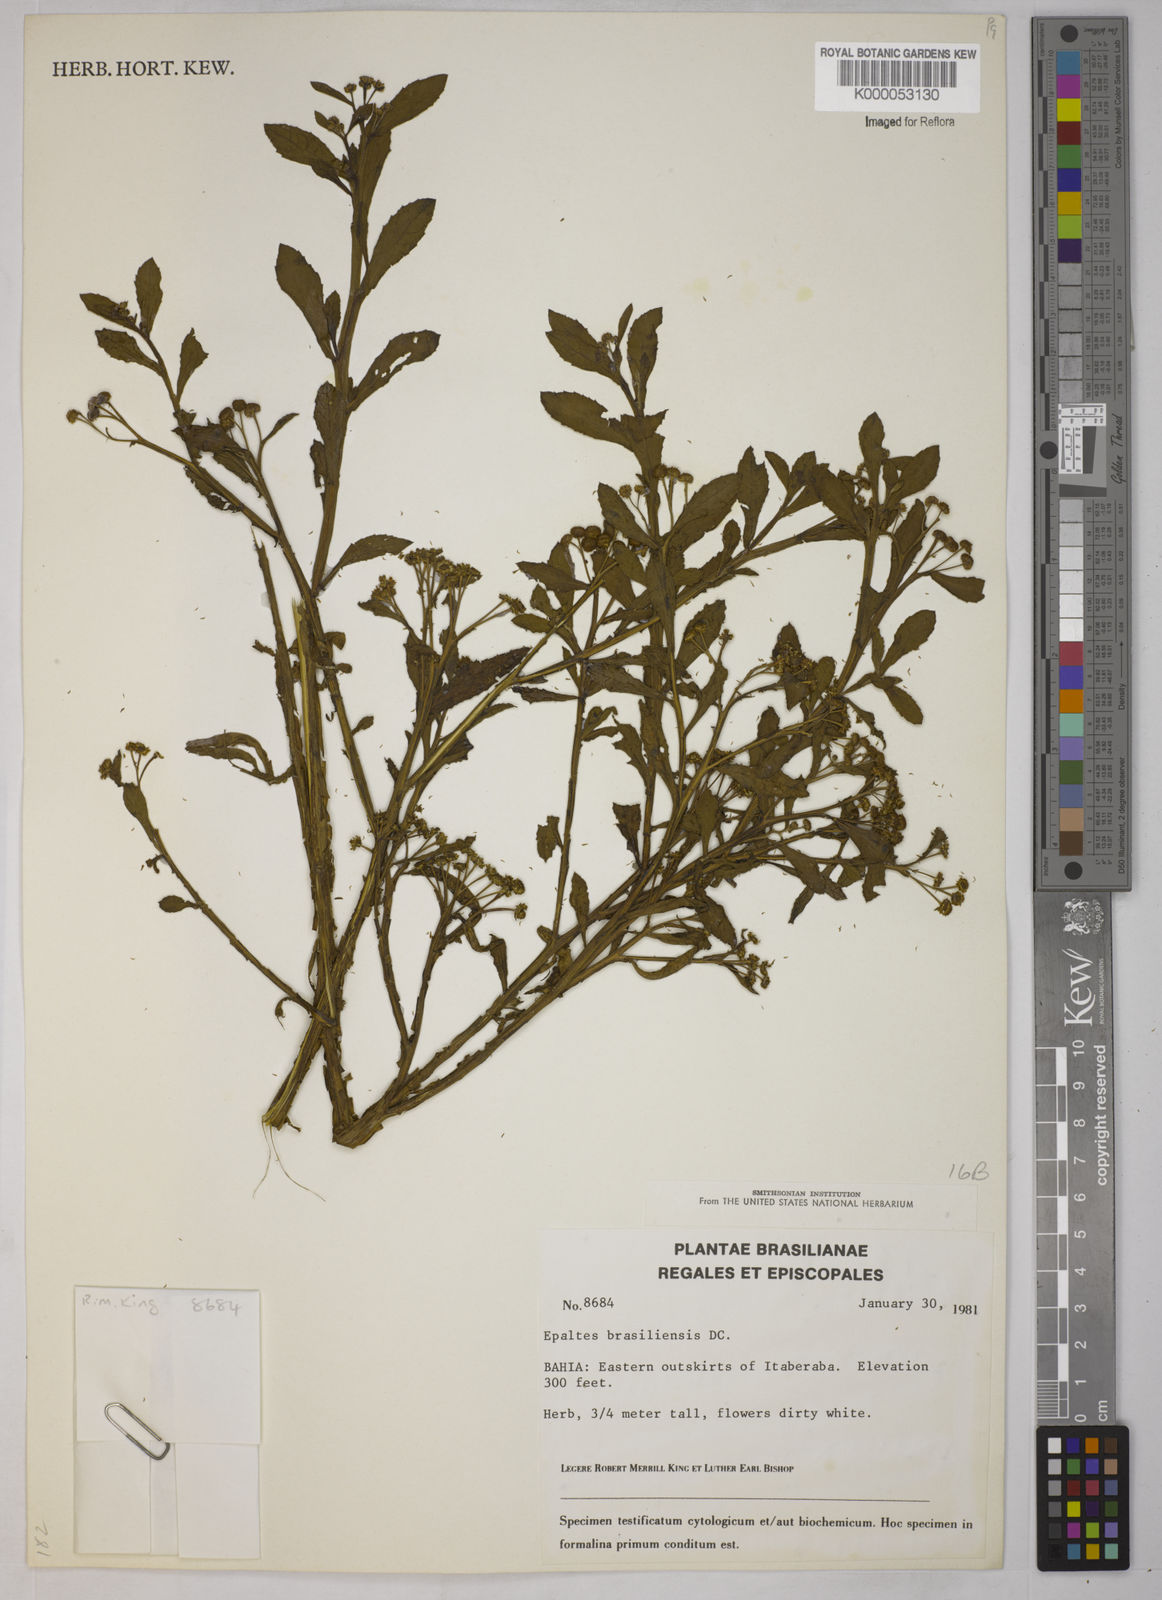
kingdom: Plantae
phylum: Tracheophyta
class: Magnoliopsida
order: Asterales
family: Asteraceae
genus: Epaltes
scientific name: Epaltes brasiliensis
